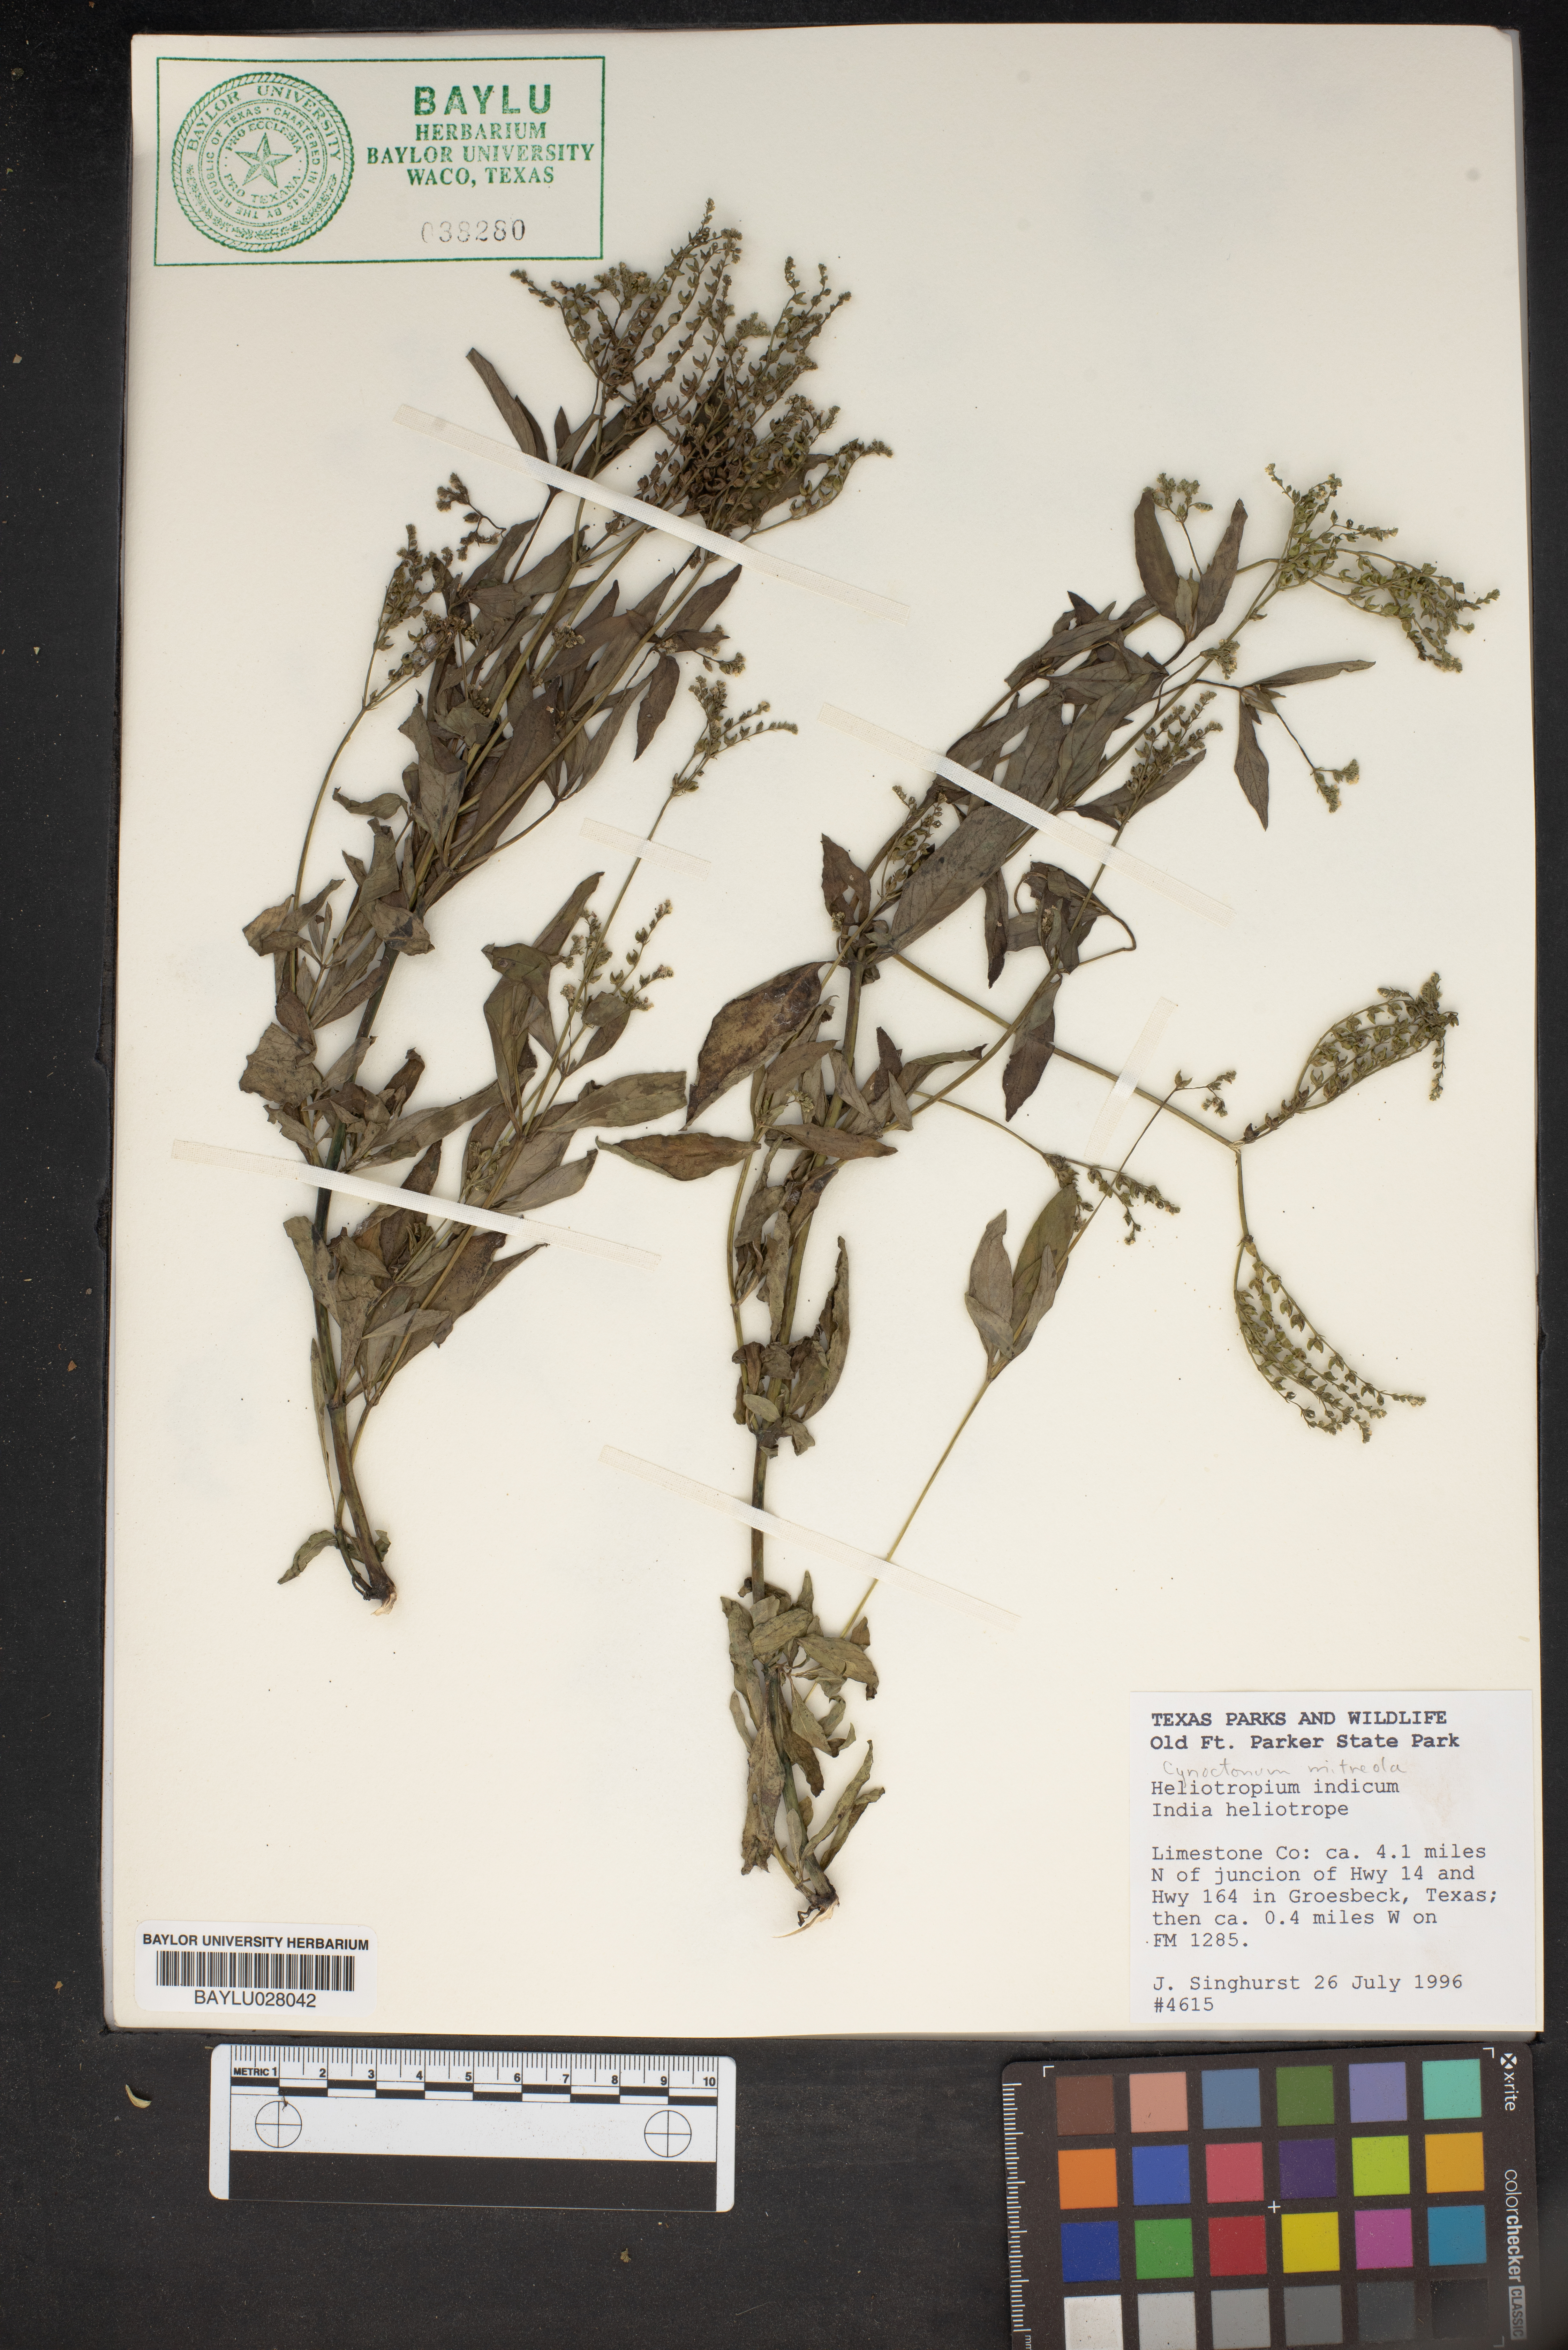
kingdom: Plantae
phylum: Tracheophyta
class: Magnoliopsida
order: Boraginales
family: Heliotropiaceae
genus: Heliotropium
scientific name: Heliotropium indicum
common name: Indian heliotrope
